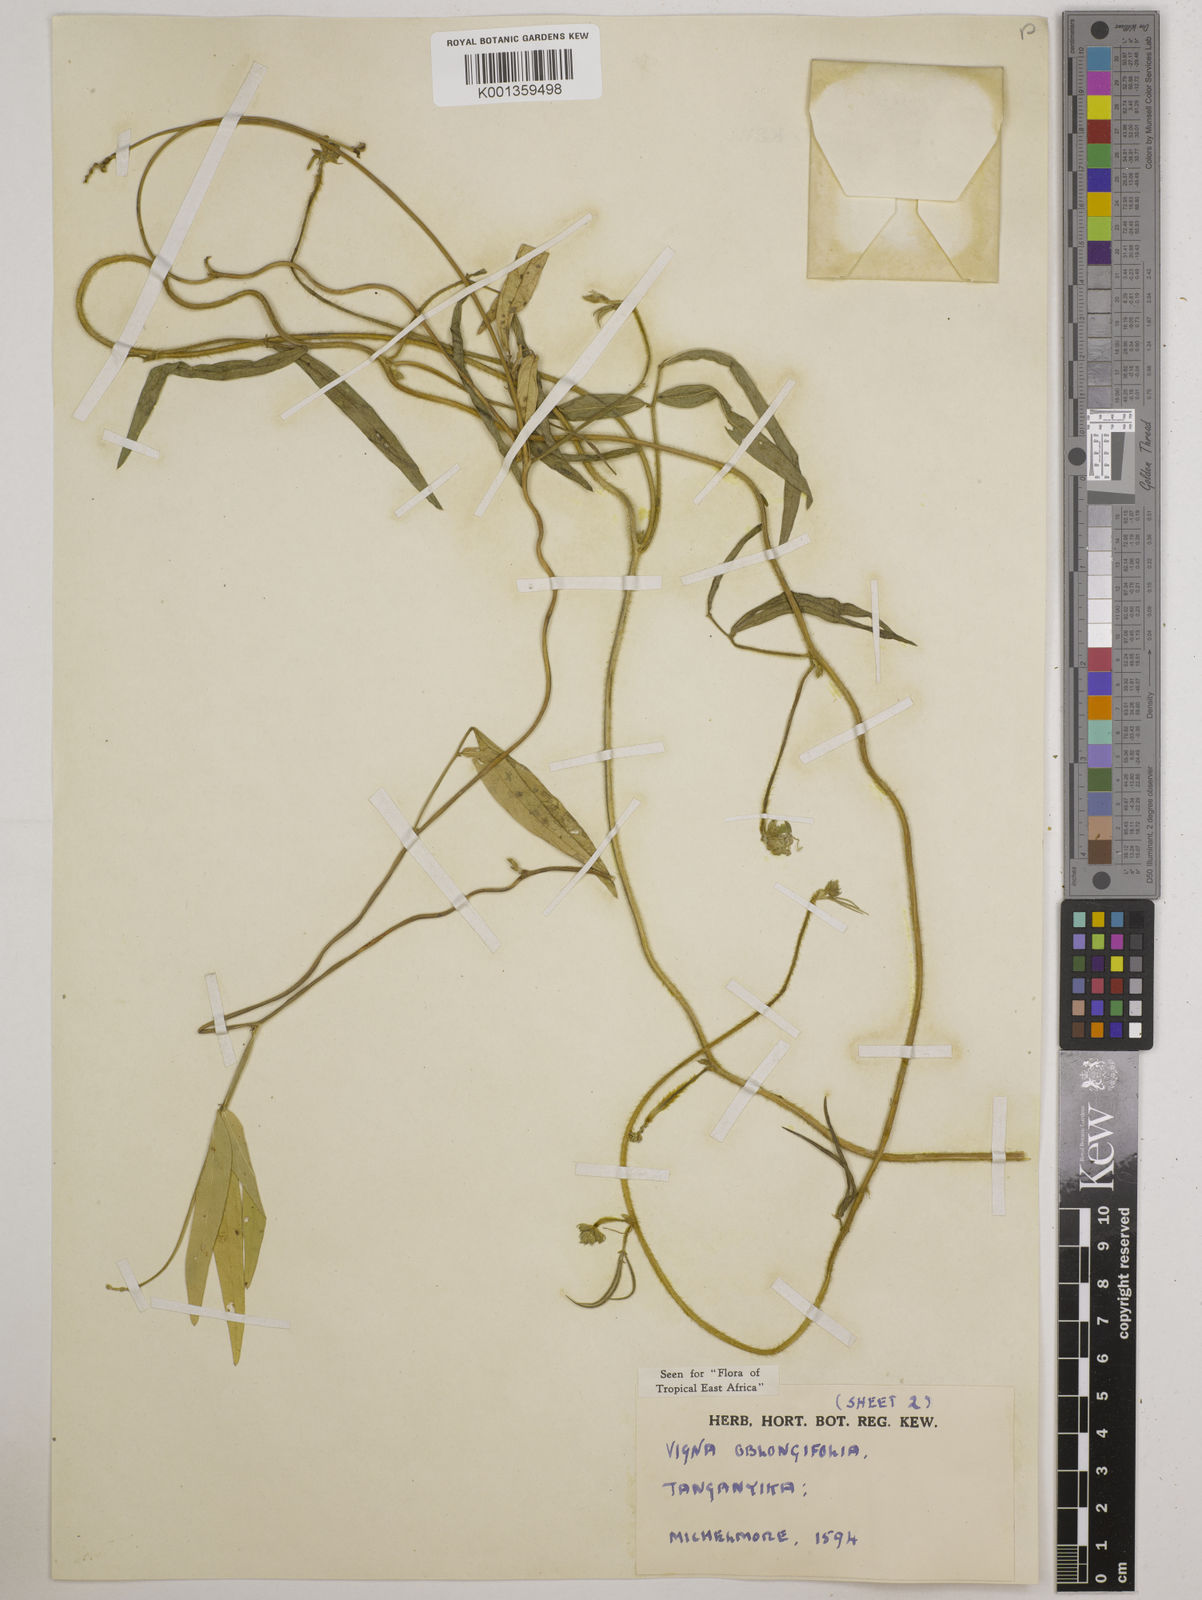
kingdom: Plantae
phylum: Tracheophyta
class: Magnoliopsida
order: Fabales
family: Fabaceae
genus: Vigna
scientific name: Vigna oblongifolia
